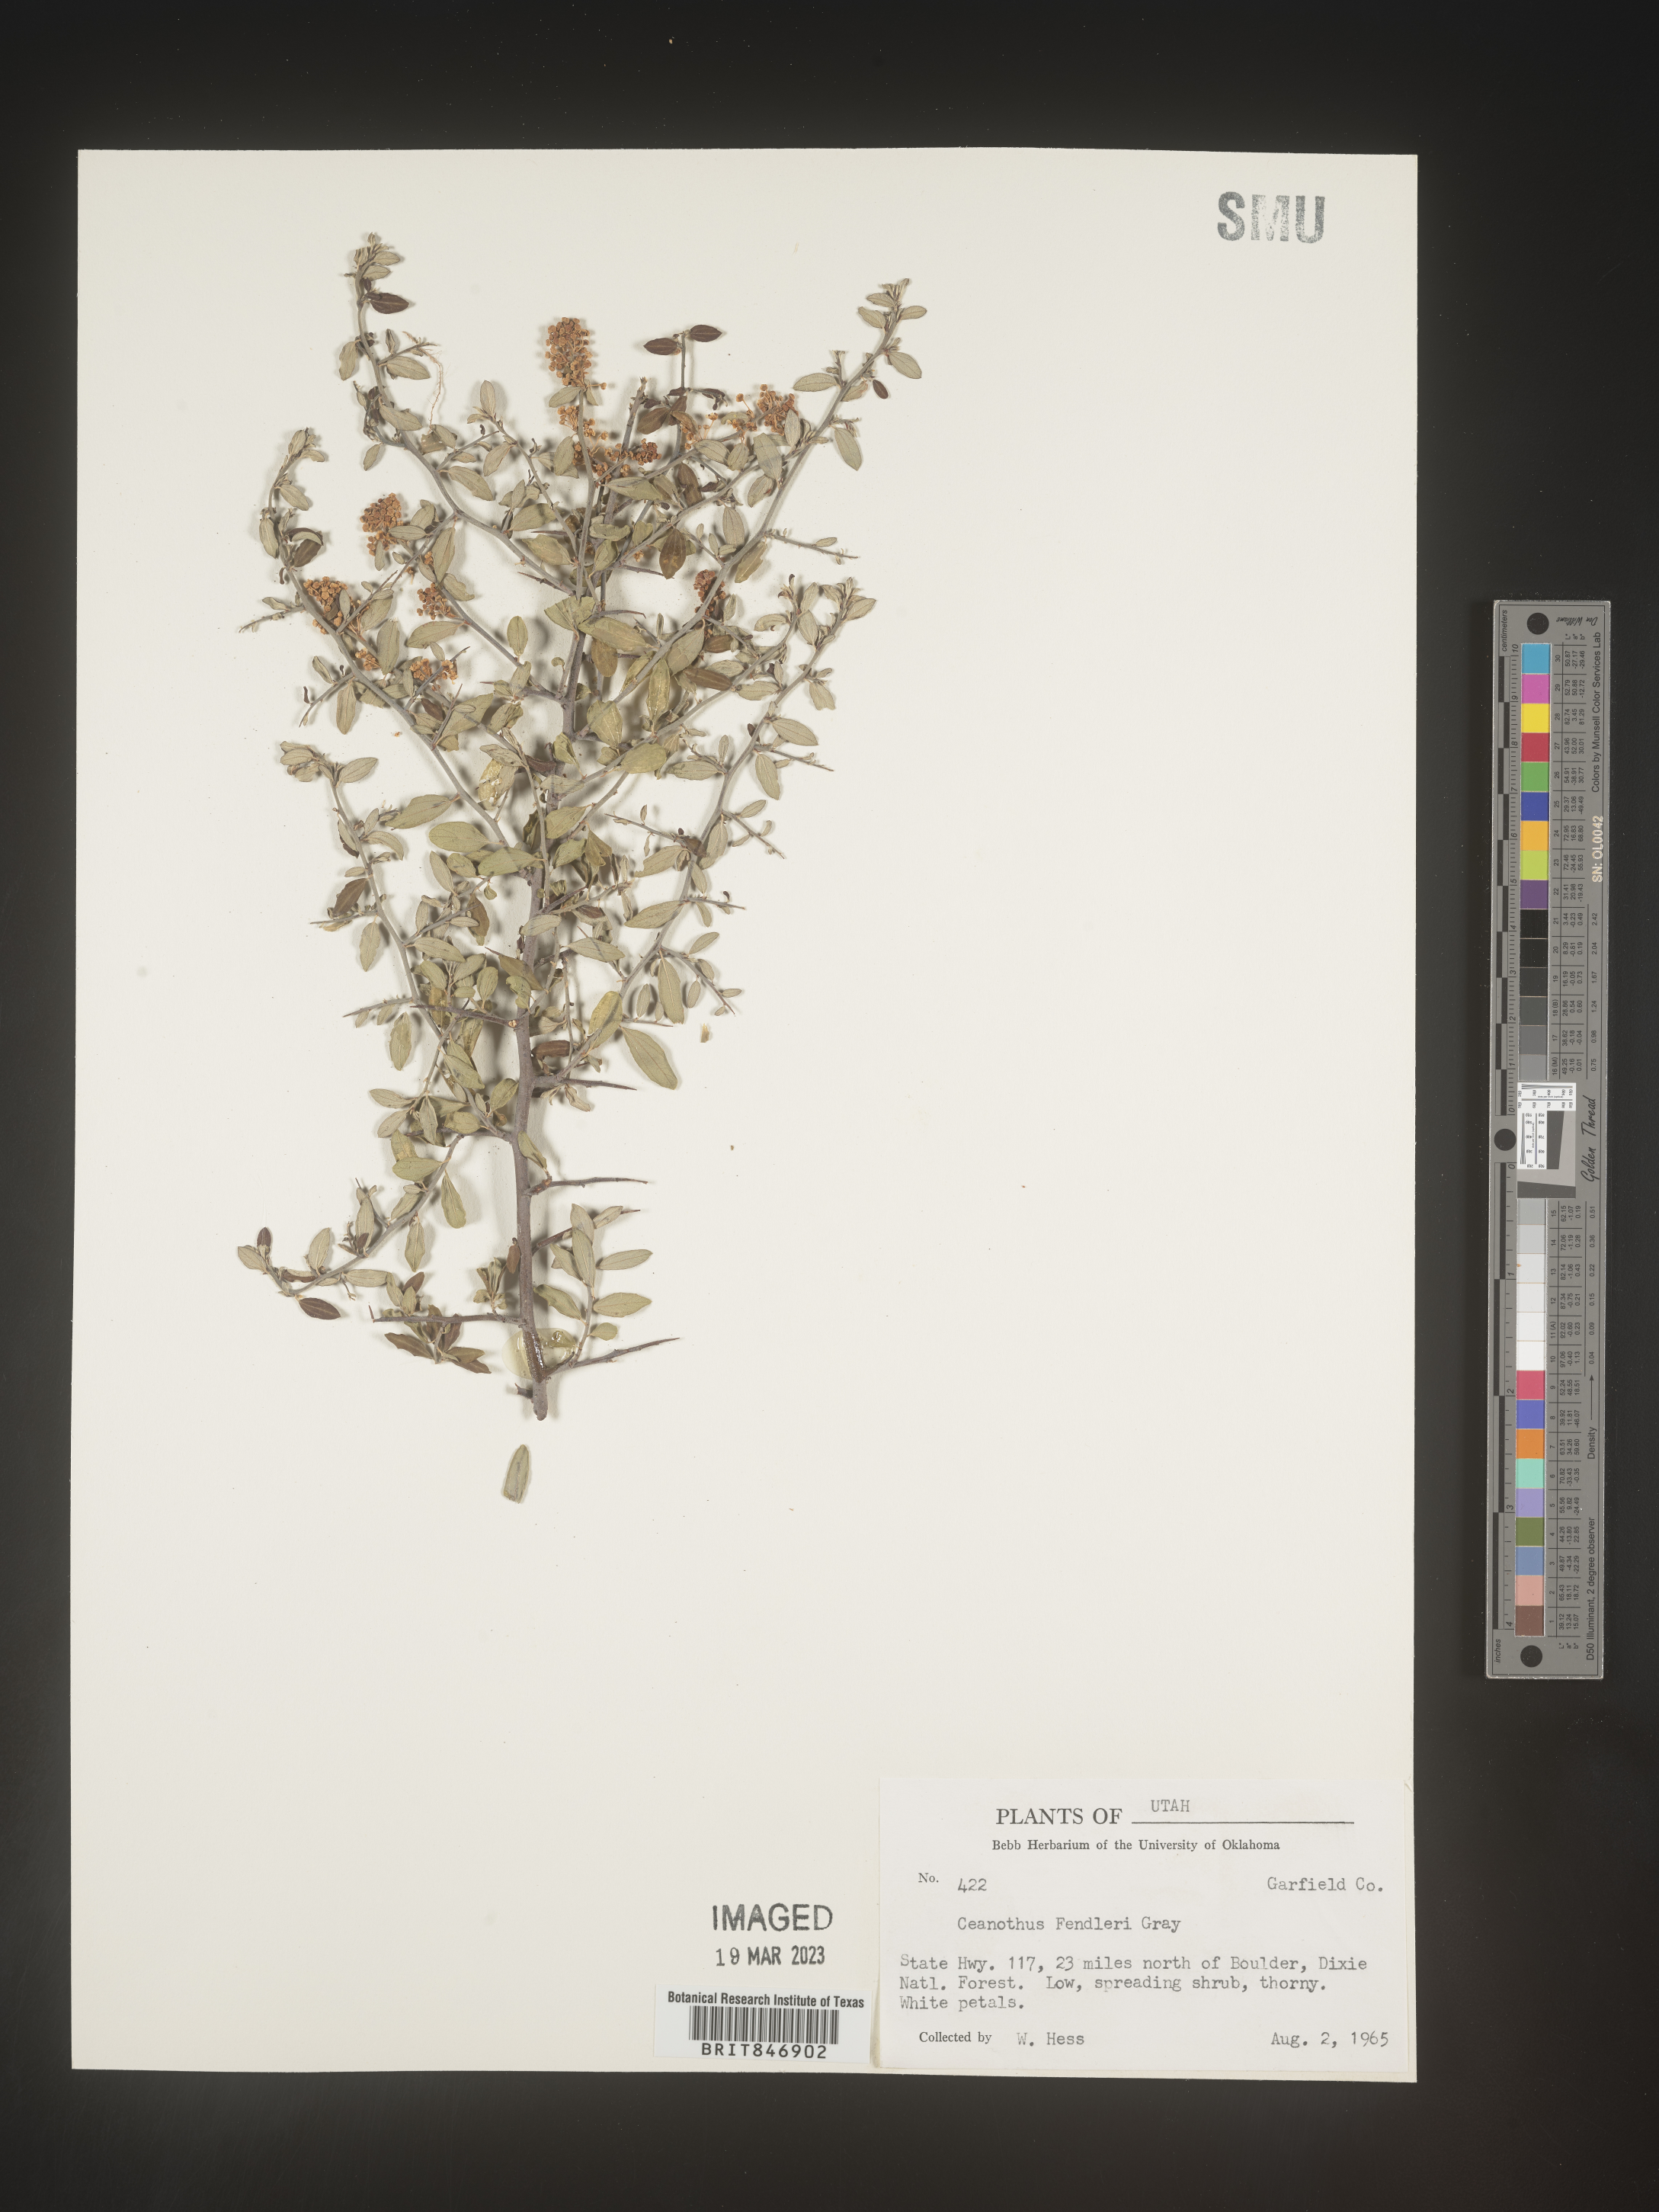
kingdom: Plantae
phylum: Tracheophyta
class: Magnoliopsida
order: Rosales
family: Rhamnaceae
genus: Ceanothus
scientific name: Ceanothus fendleri
